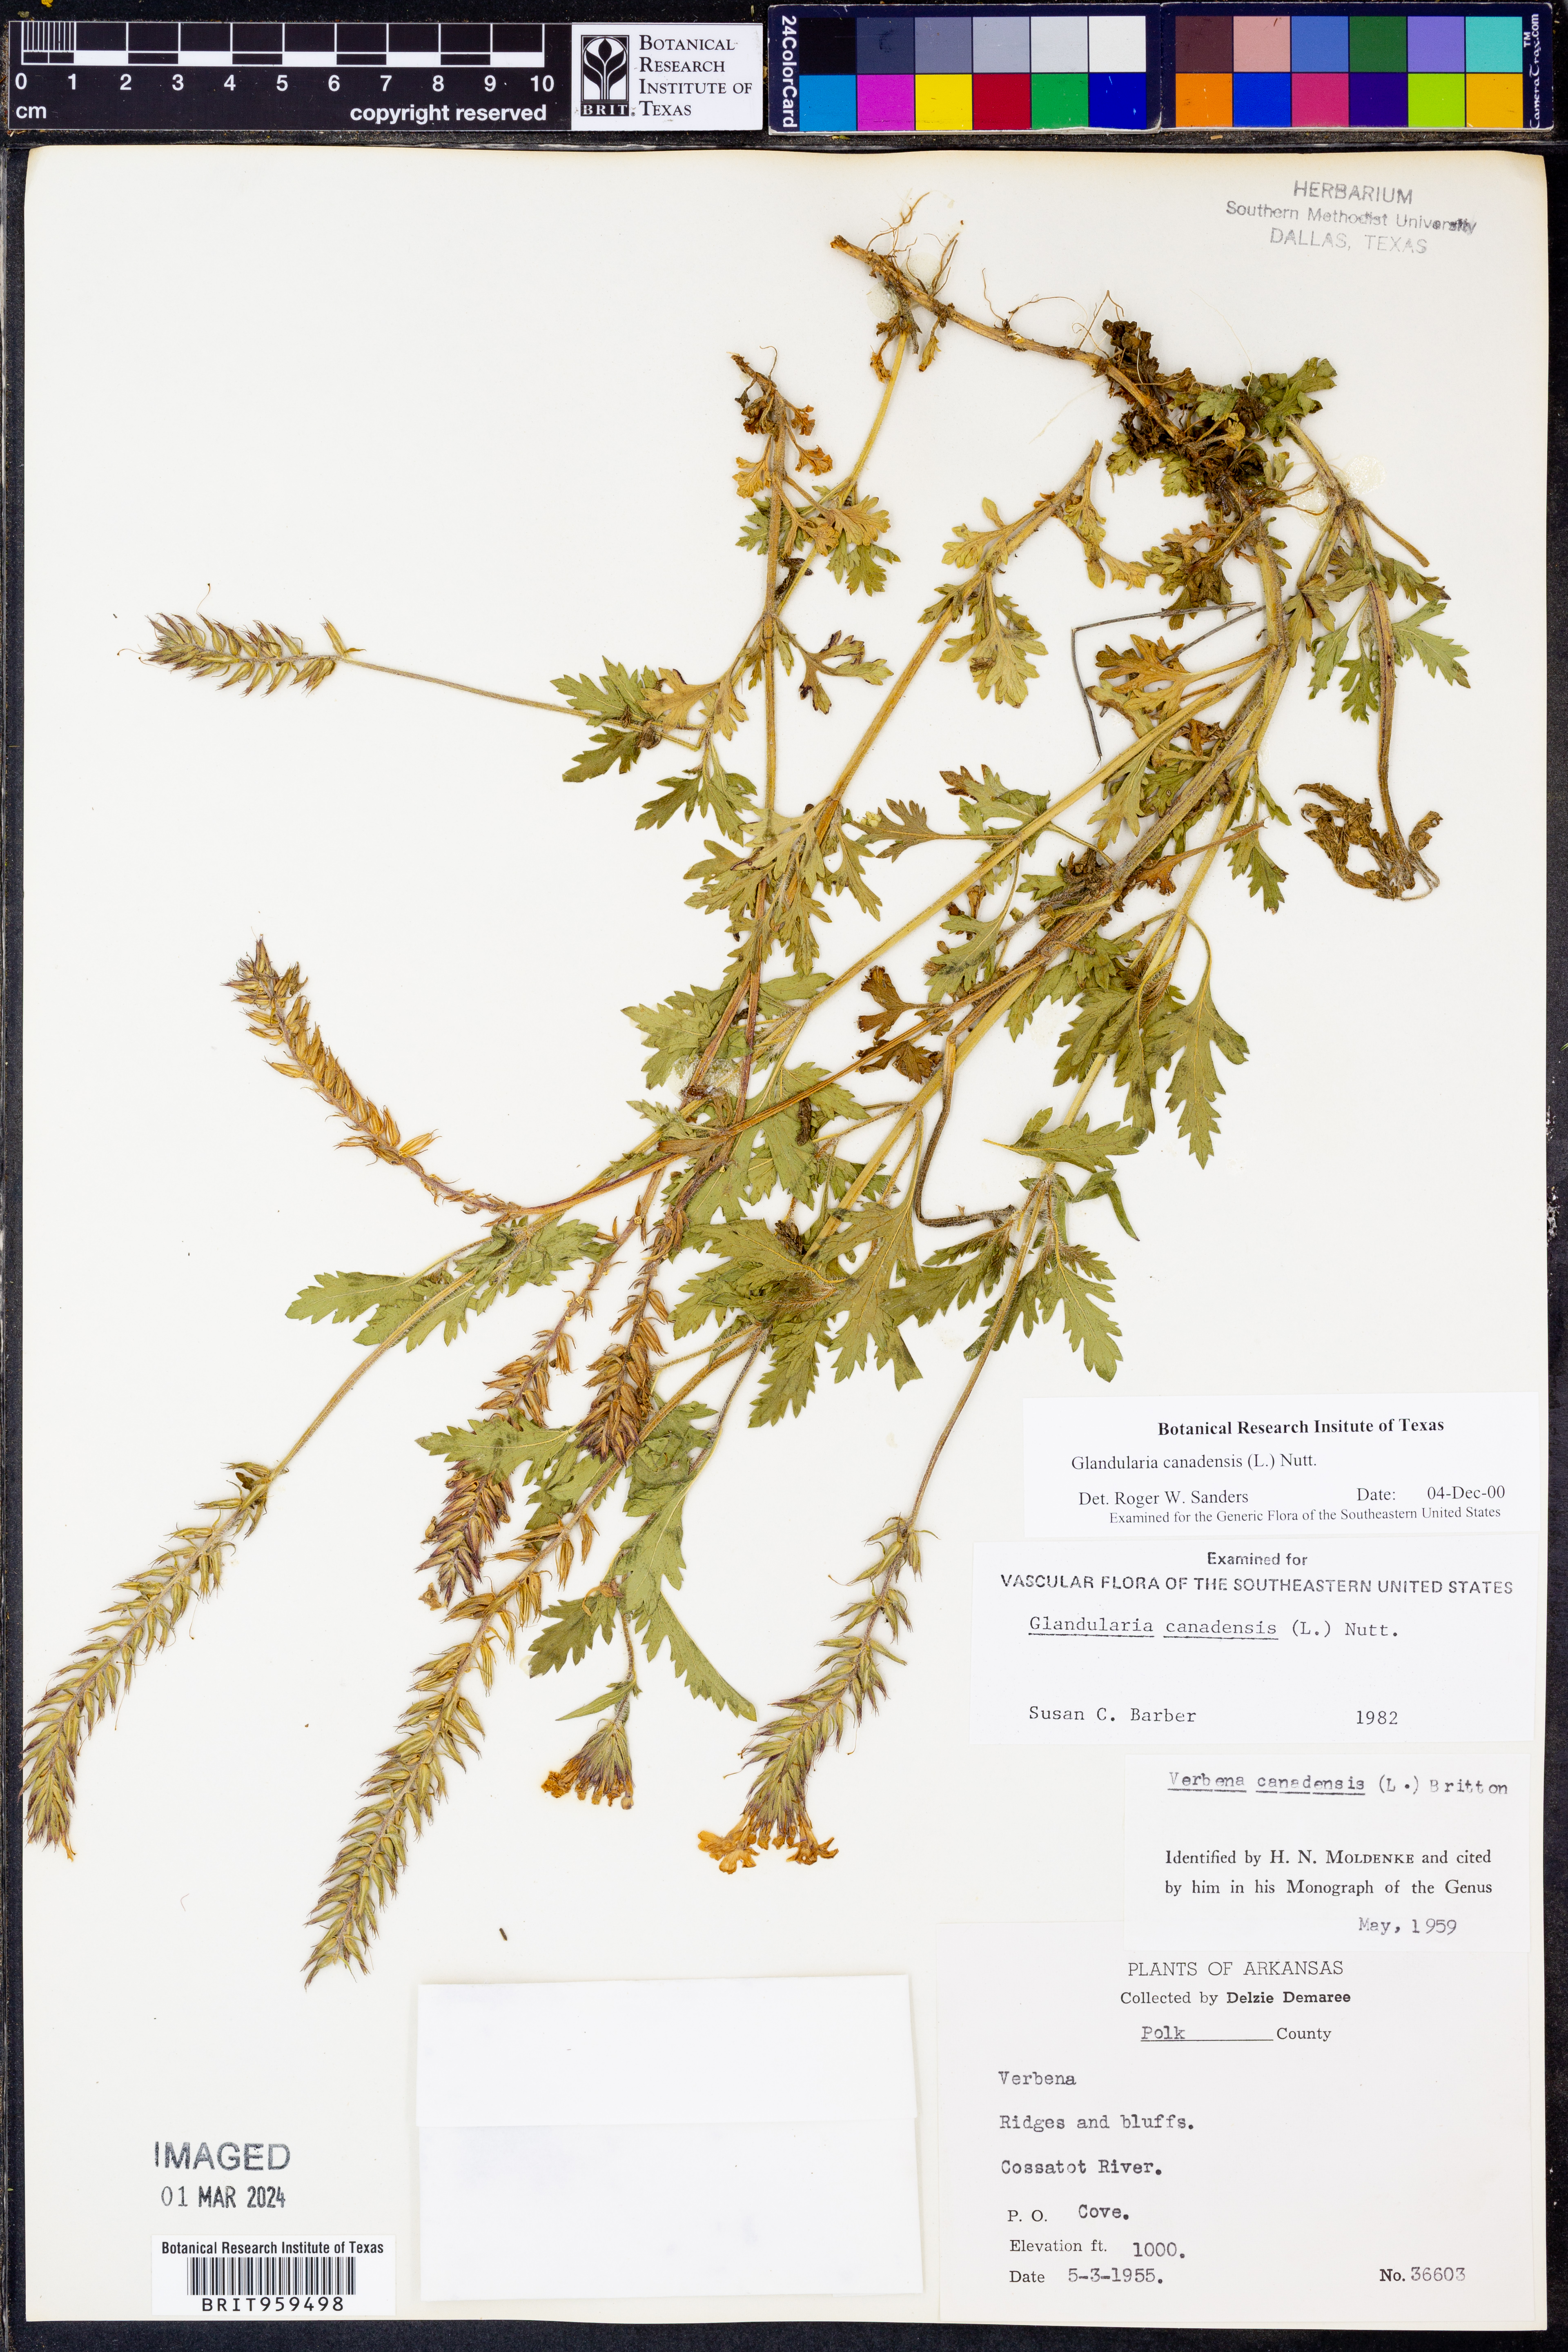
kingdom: Plantae
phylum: Tracheophyta
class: Magnoliopsida
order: Lamiales
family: Verbenaceae
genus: Verbena
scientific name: Verbena canadensis
